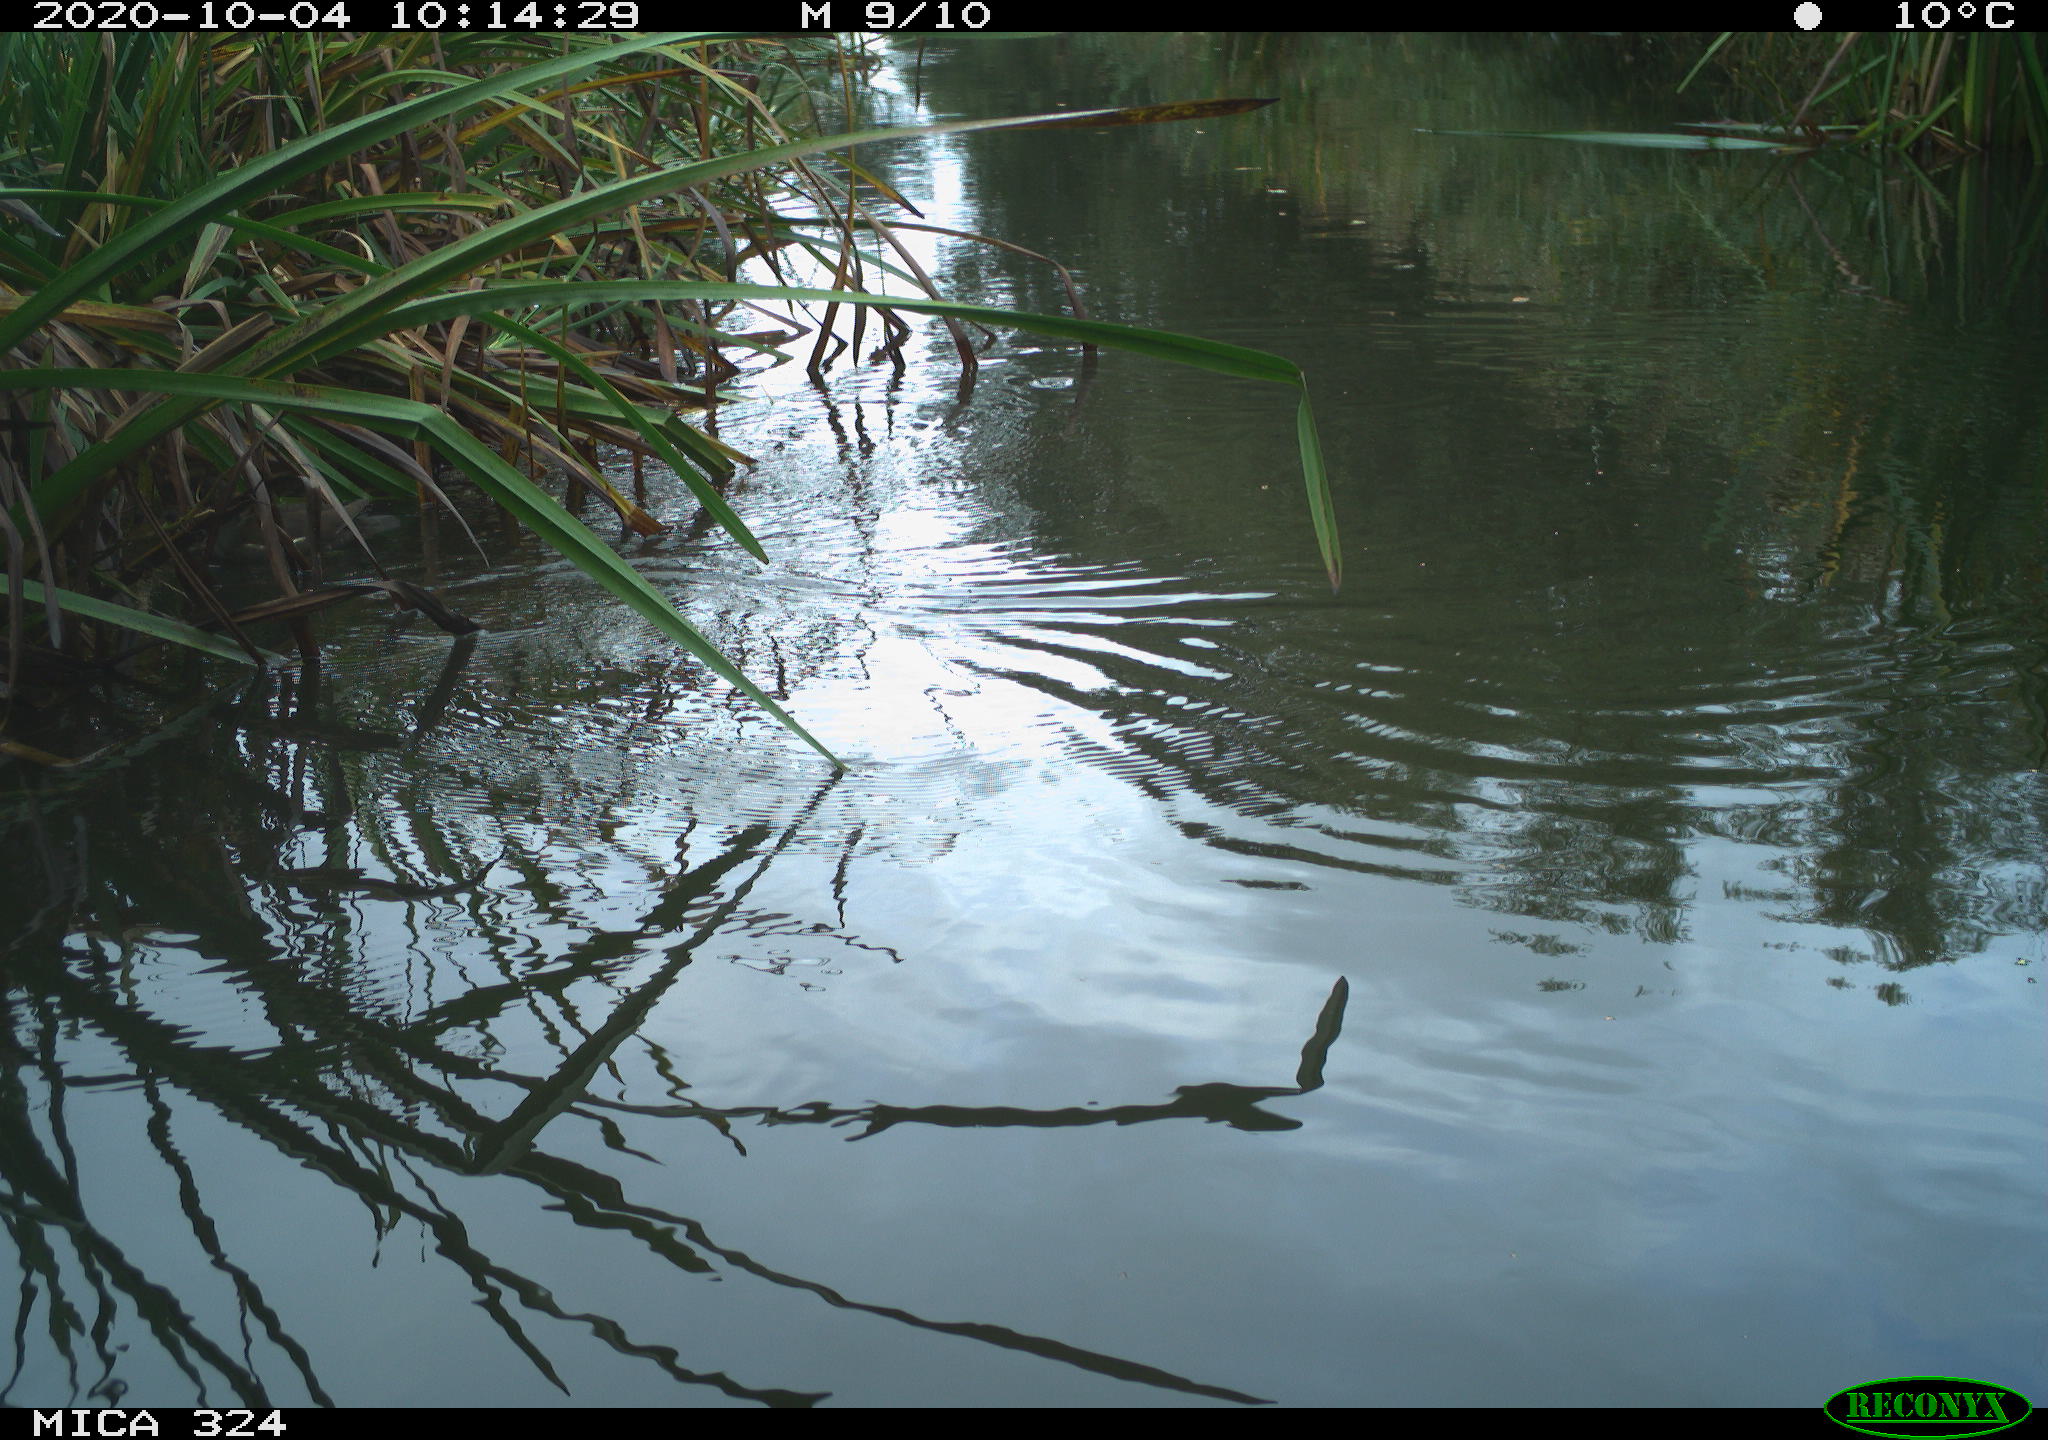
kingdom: Animalia
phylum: Chordata
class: Aves
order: Gruiformes
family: Rallidae
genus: Gallinula
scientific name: Gallinula chloropus
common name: Common moorhen
